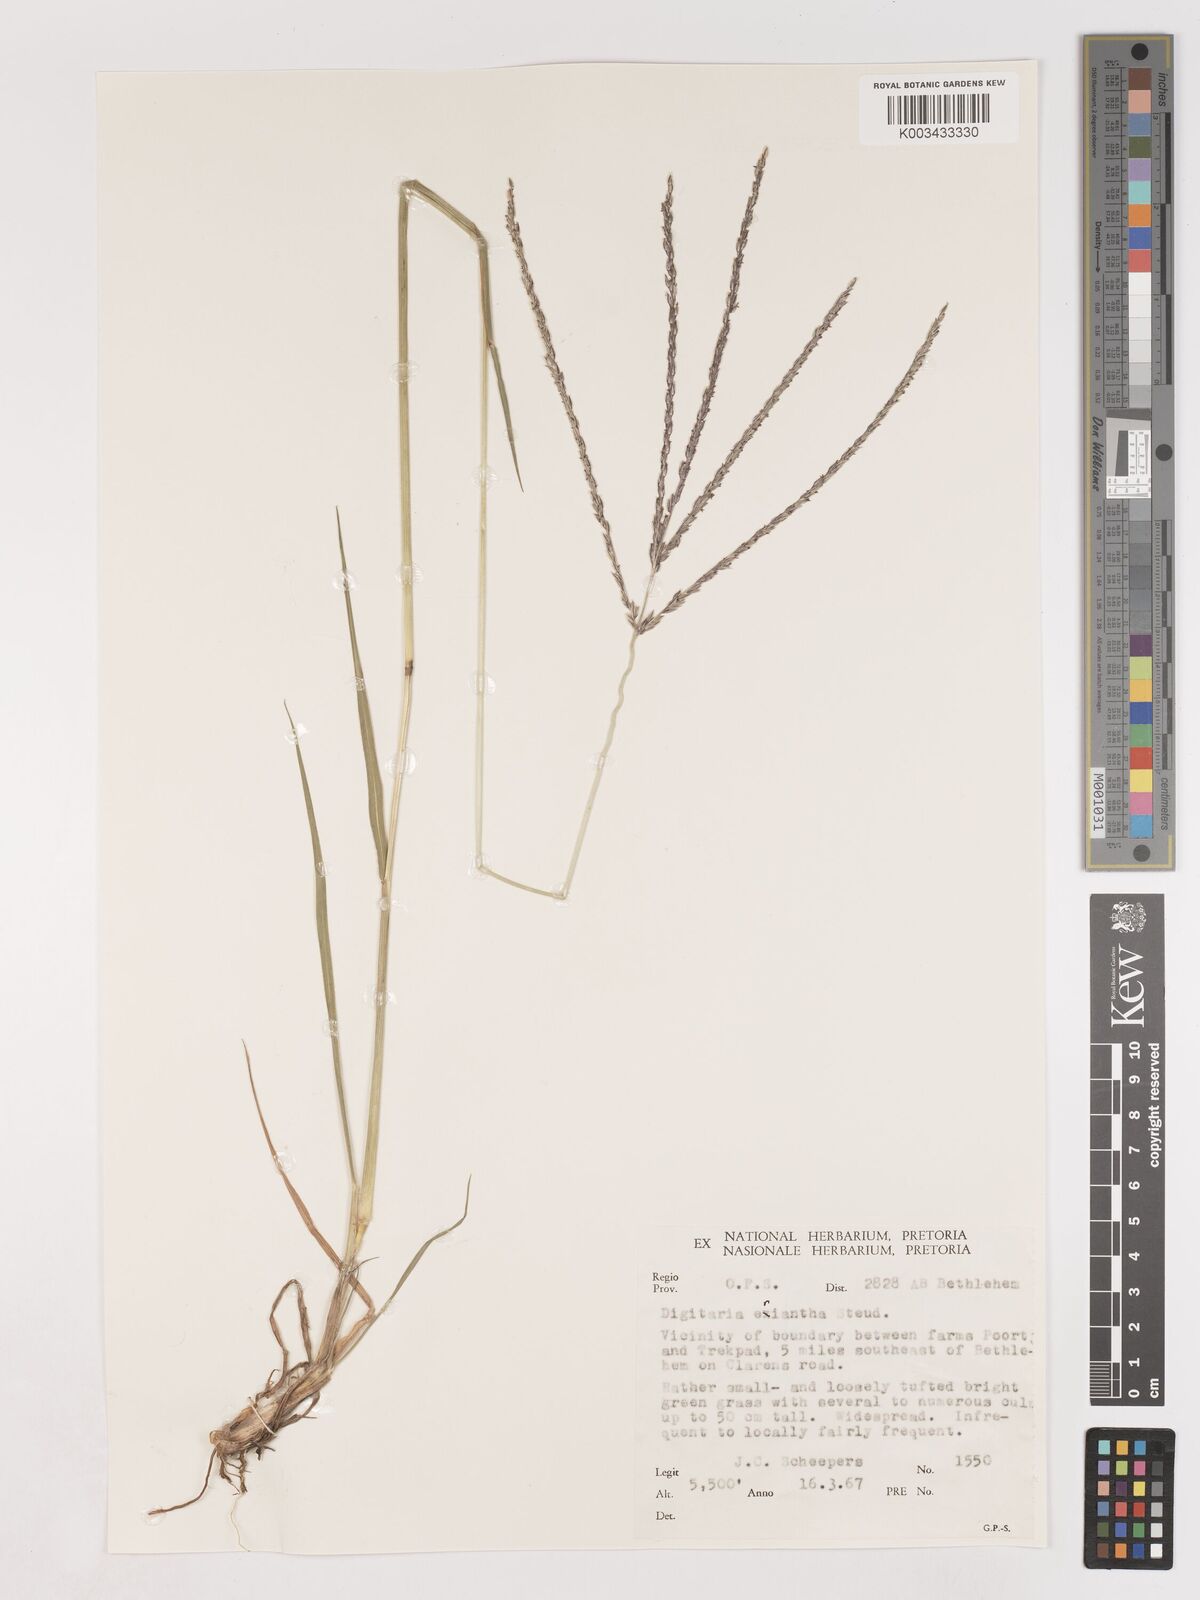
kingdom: Plantae
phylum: Tracheophyta
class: Liliopsida
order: Poales
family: Poaceae
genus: Digitaria
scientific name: Digitaria eriantha
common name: Digitgrass
